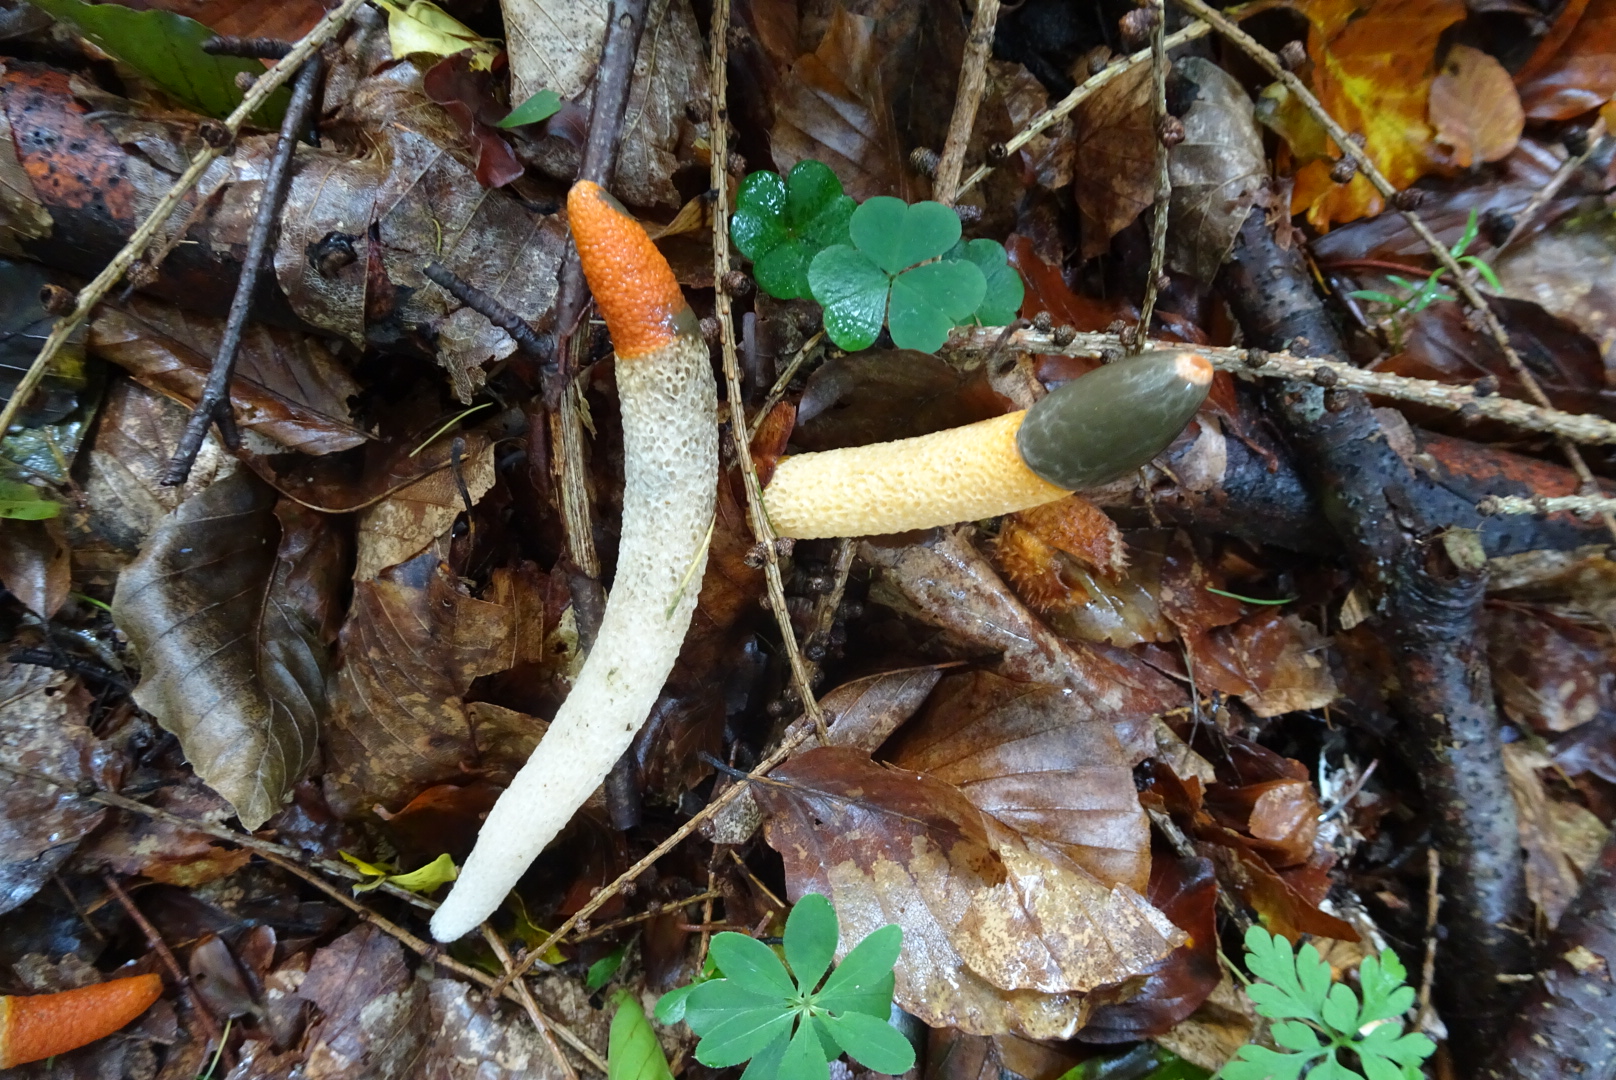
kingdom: Fungi
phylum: Basidiomycota
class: Agaricomycetes
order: Phallales
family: Phallaceae
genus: Mutinus
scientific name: Mutinus caninus
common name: hunde-stinksvamp
